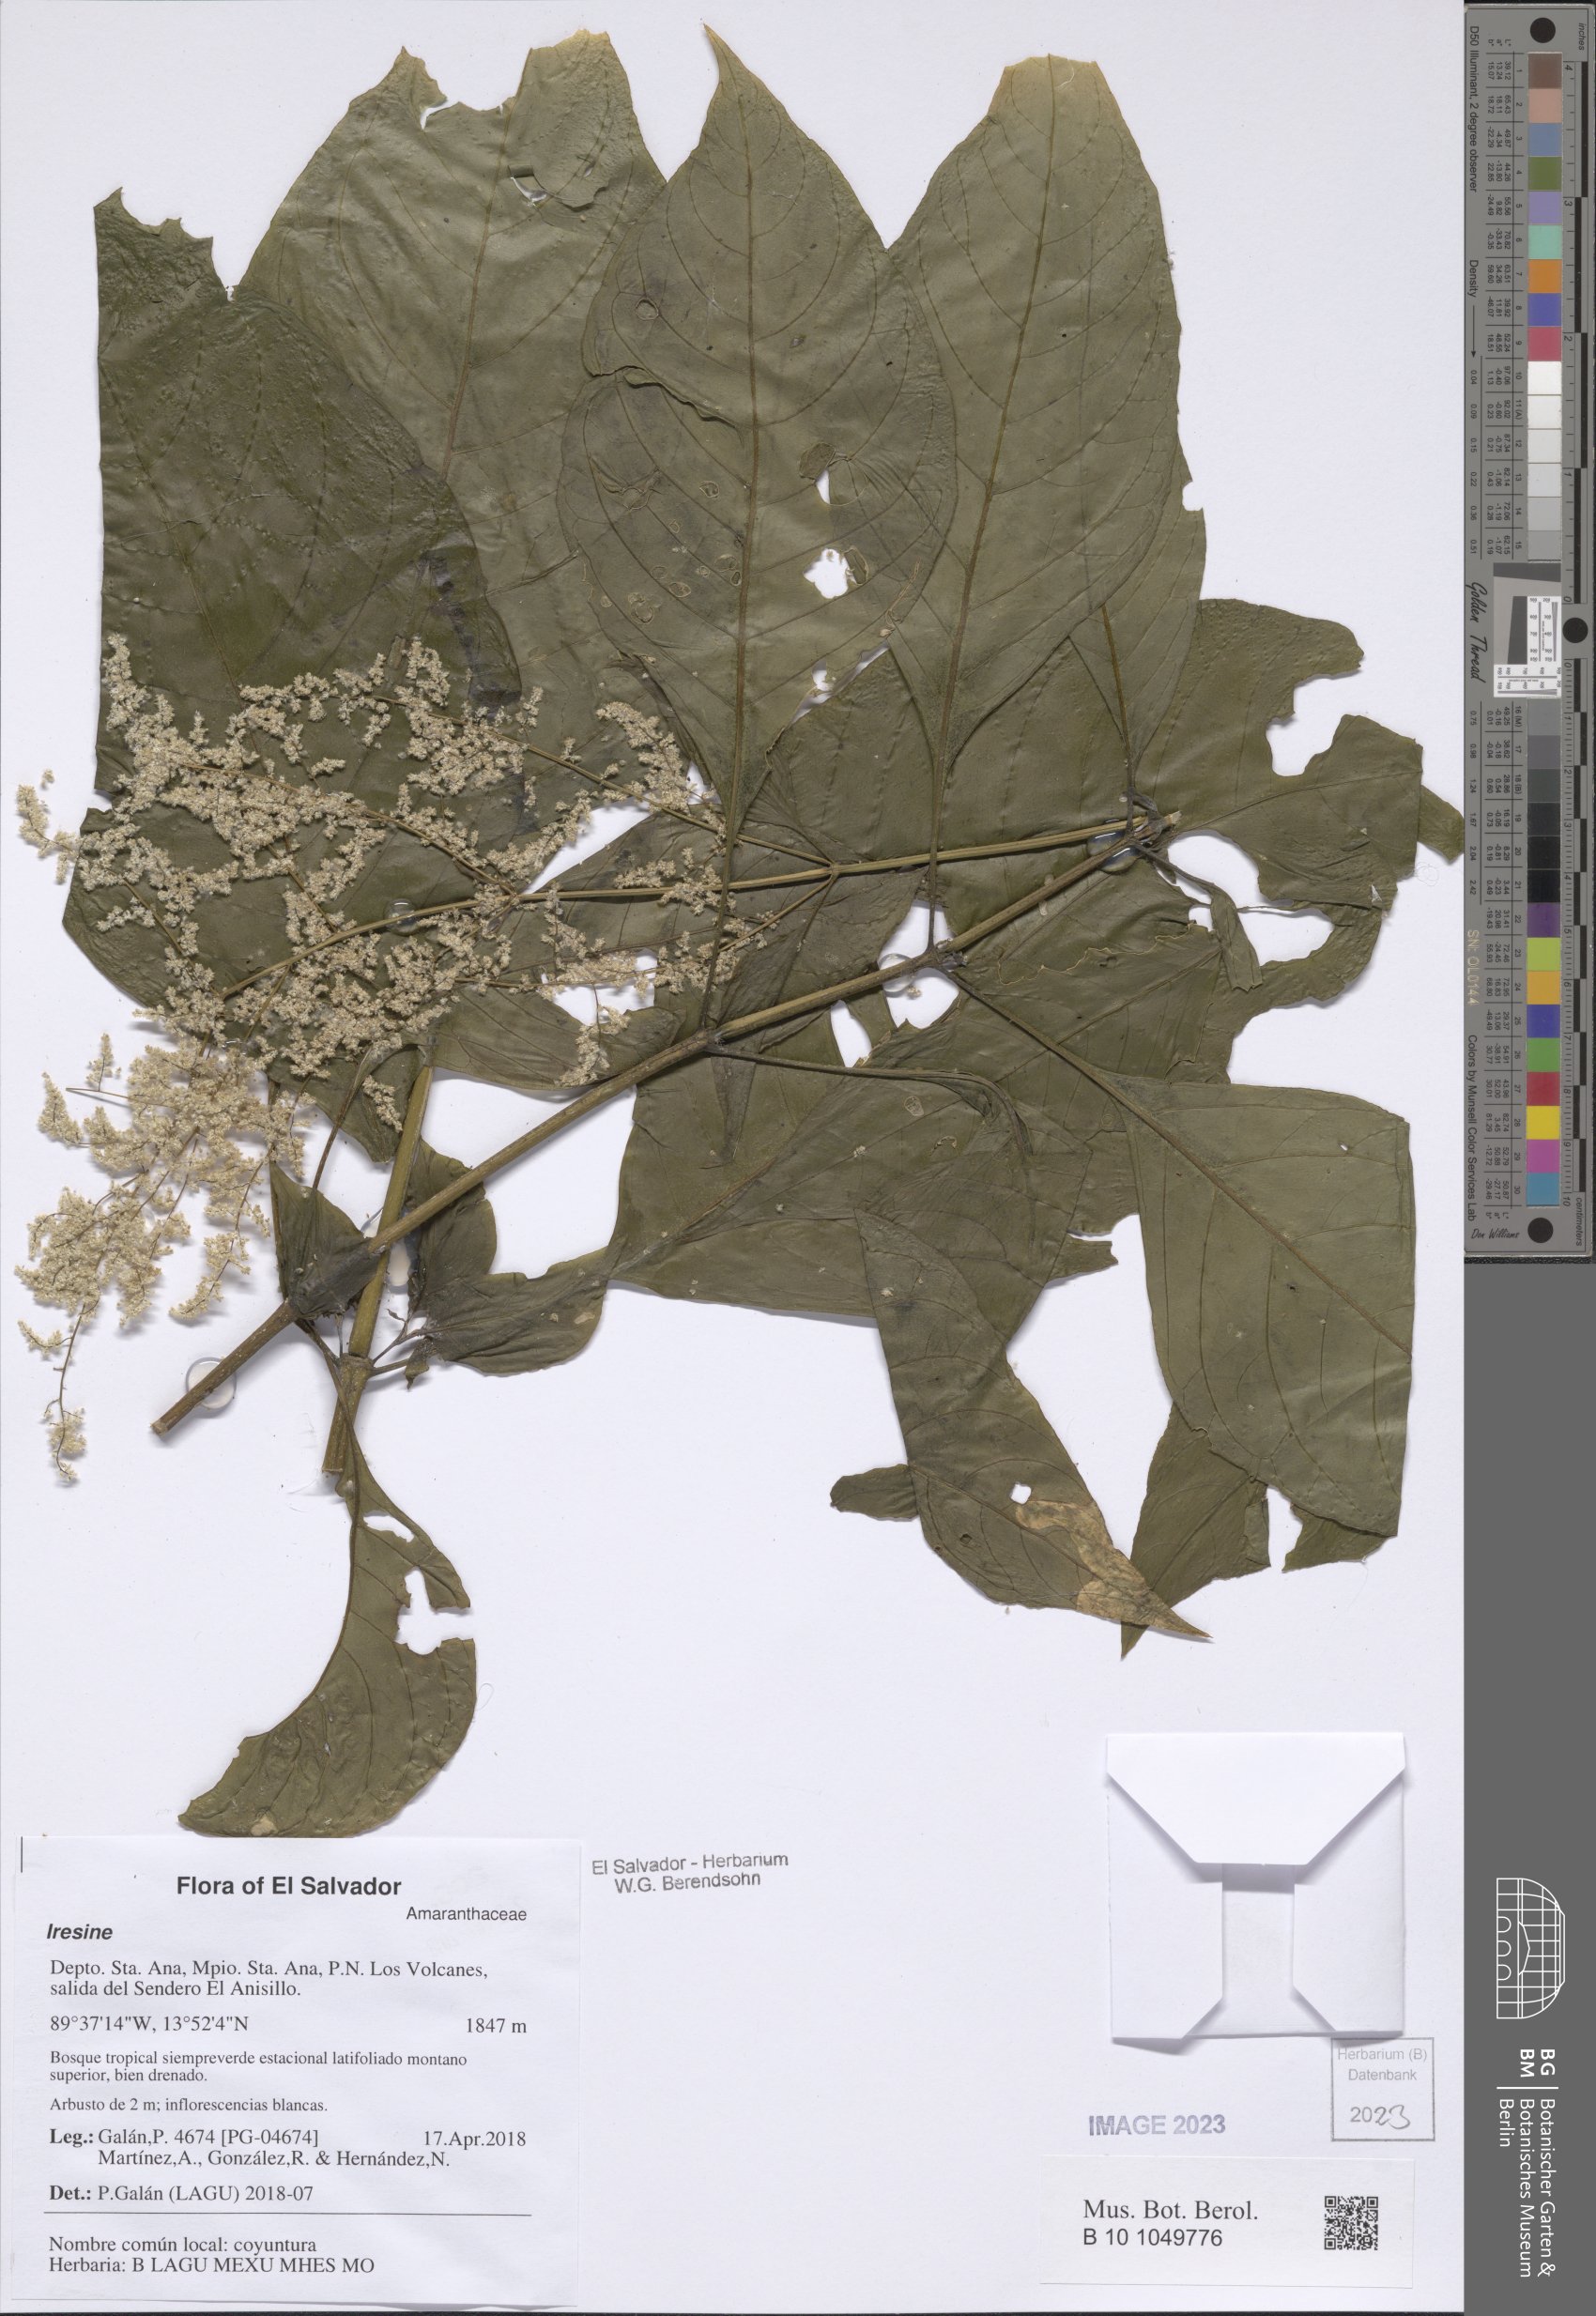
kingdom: Plantae
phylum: Tracheophyta
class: Magnoliopsida
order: Caryophyllales
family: Amaranthaceae
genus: Iresine
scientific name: Iresine
